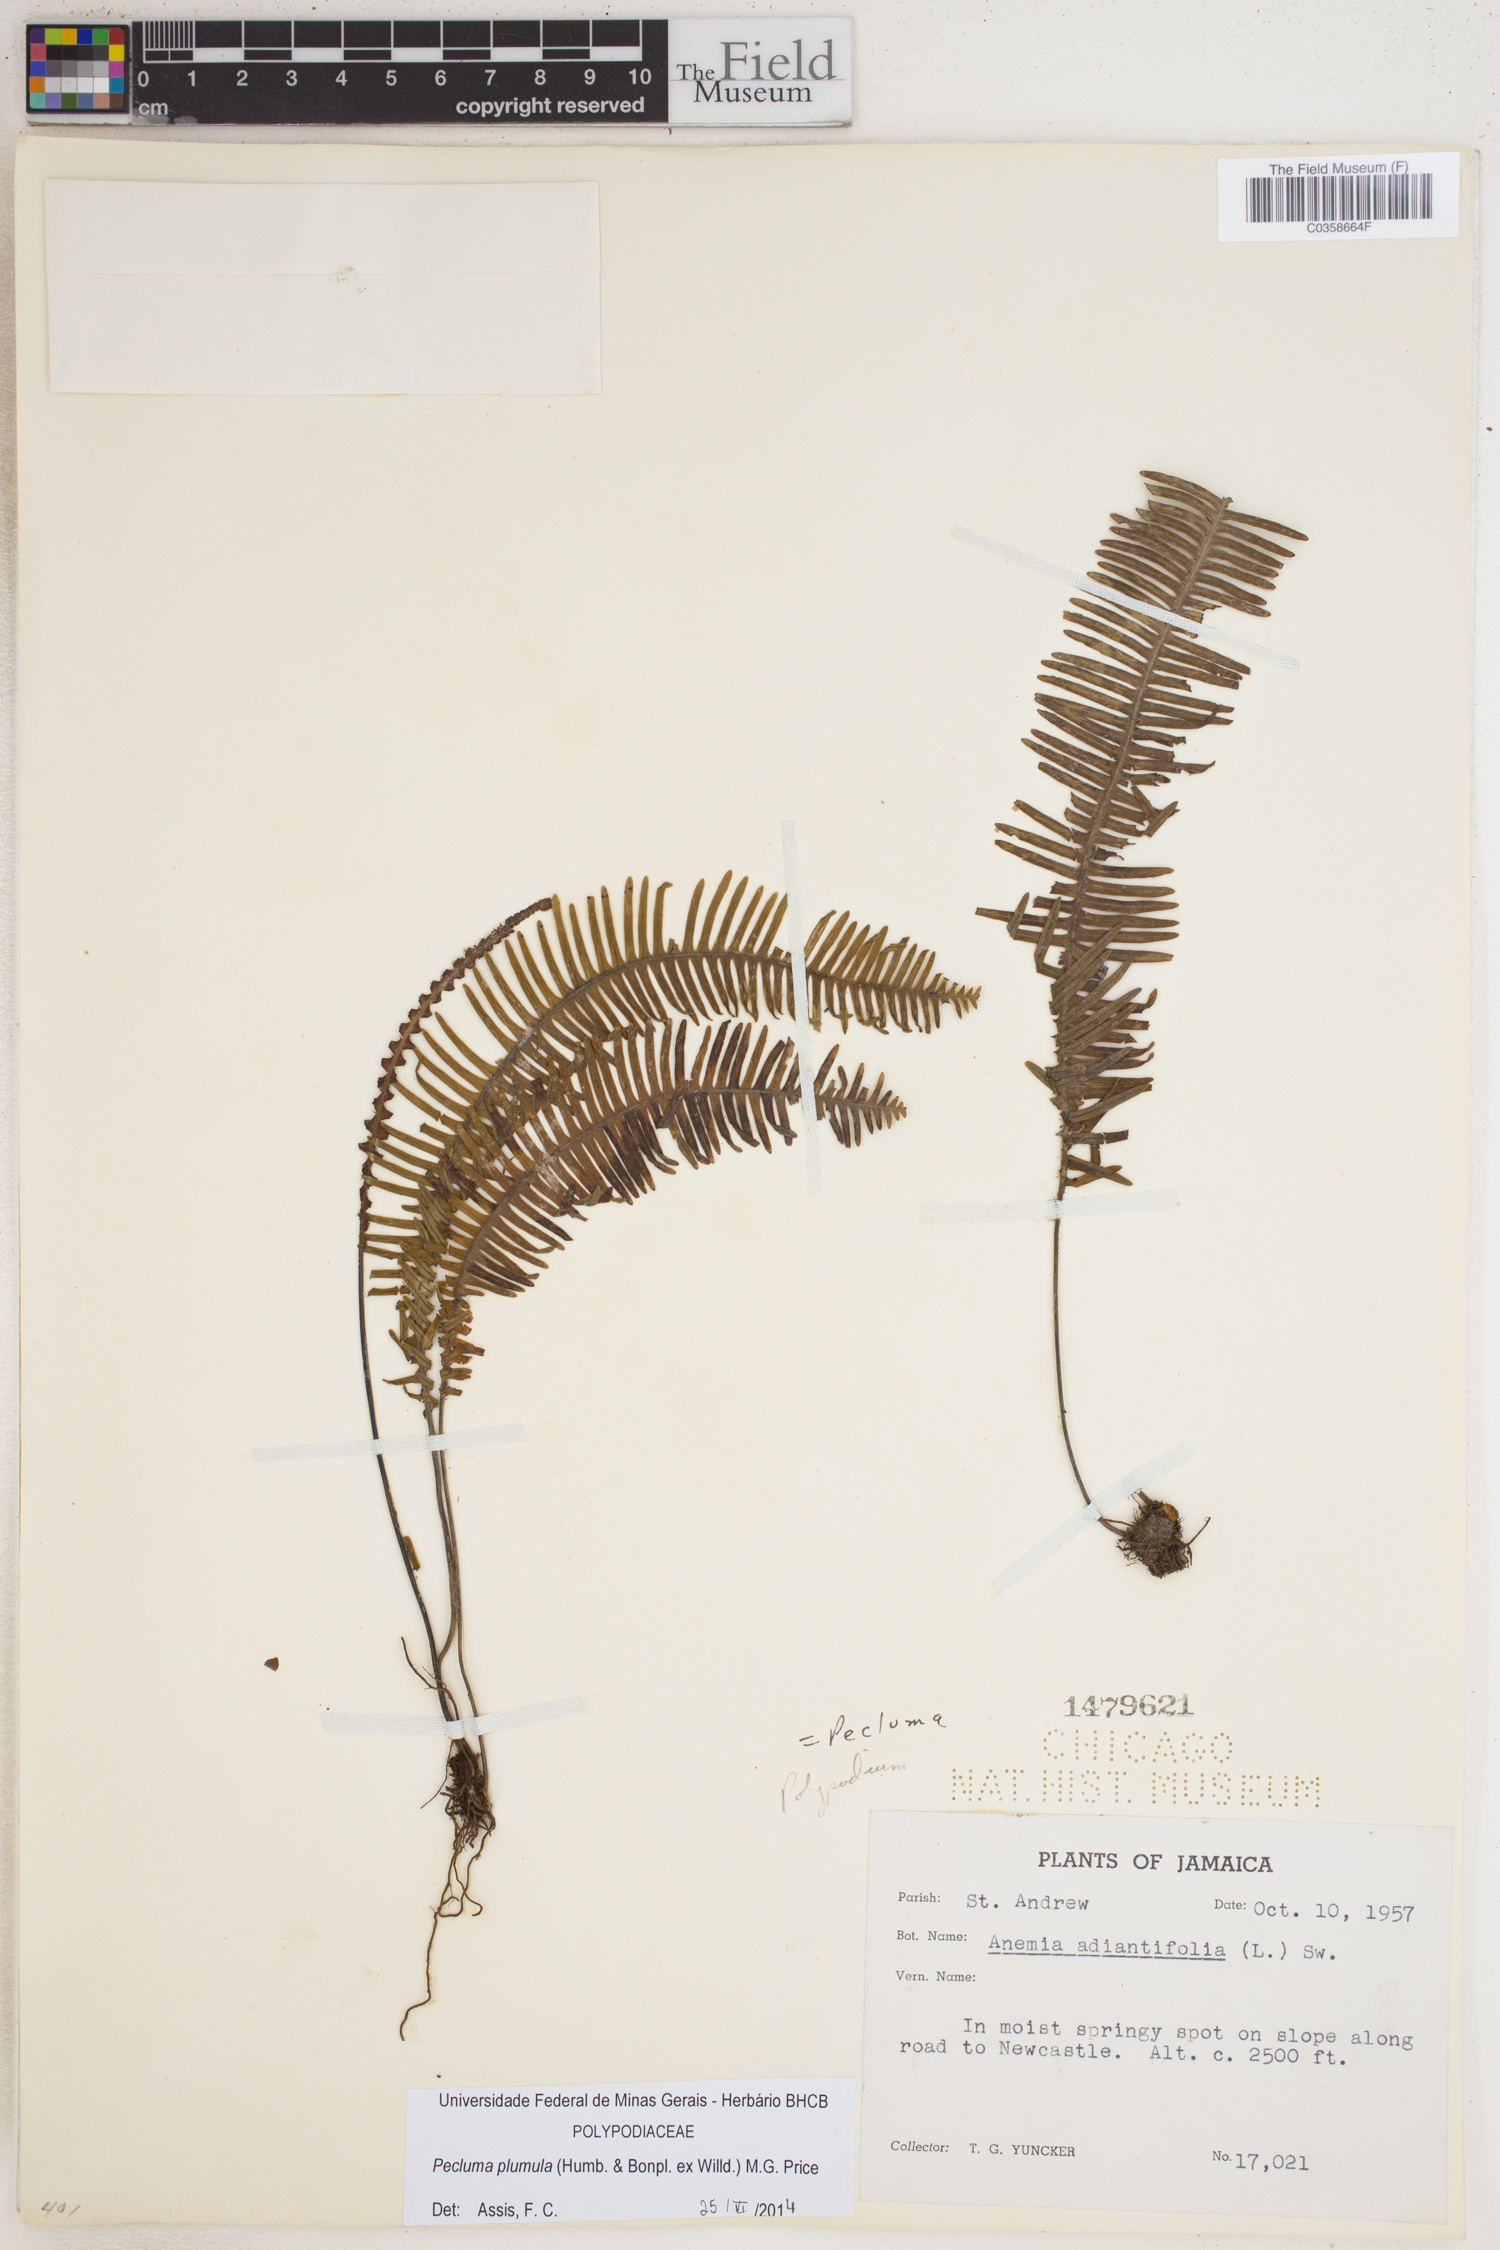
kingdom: Plantae
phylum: Tracheophyta
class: Polypodiopsida
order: Polypodiales
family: Polypodiaceae
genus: Pecluma
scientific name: Pecluma plumula
